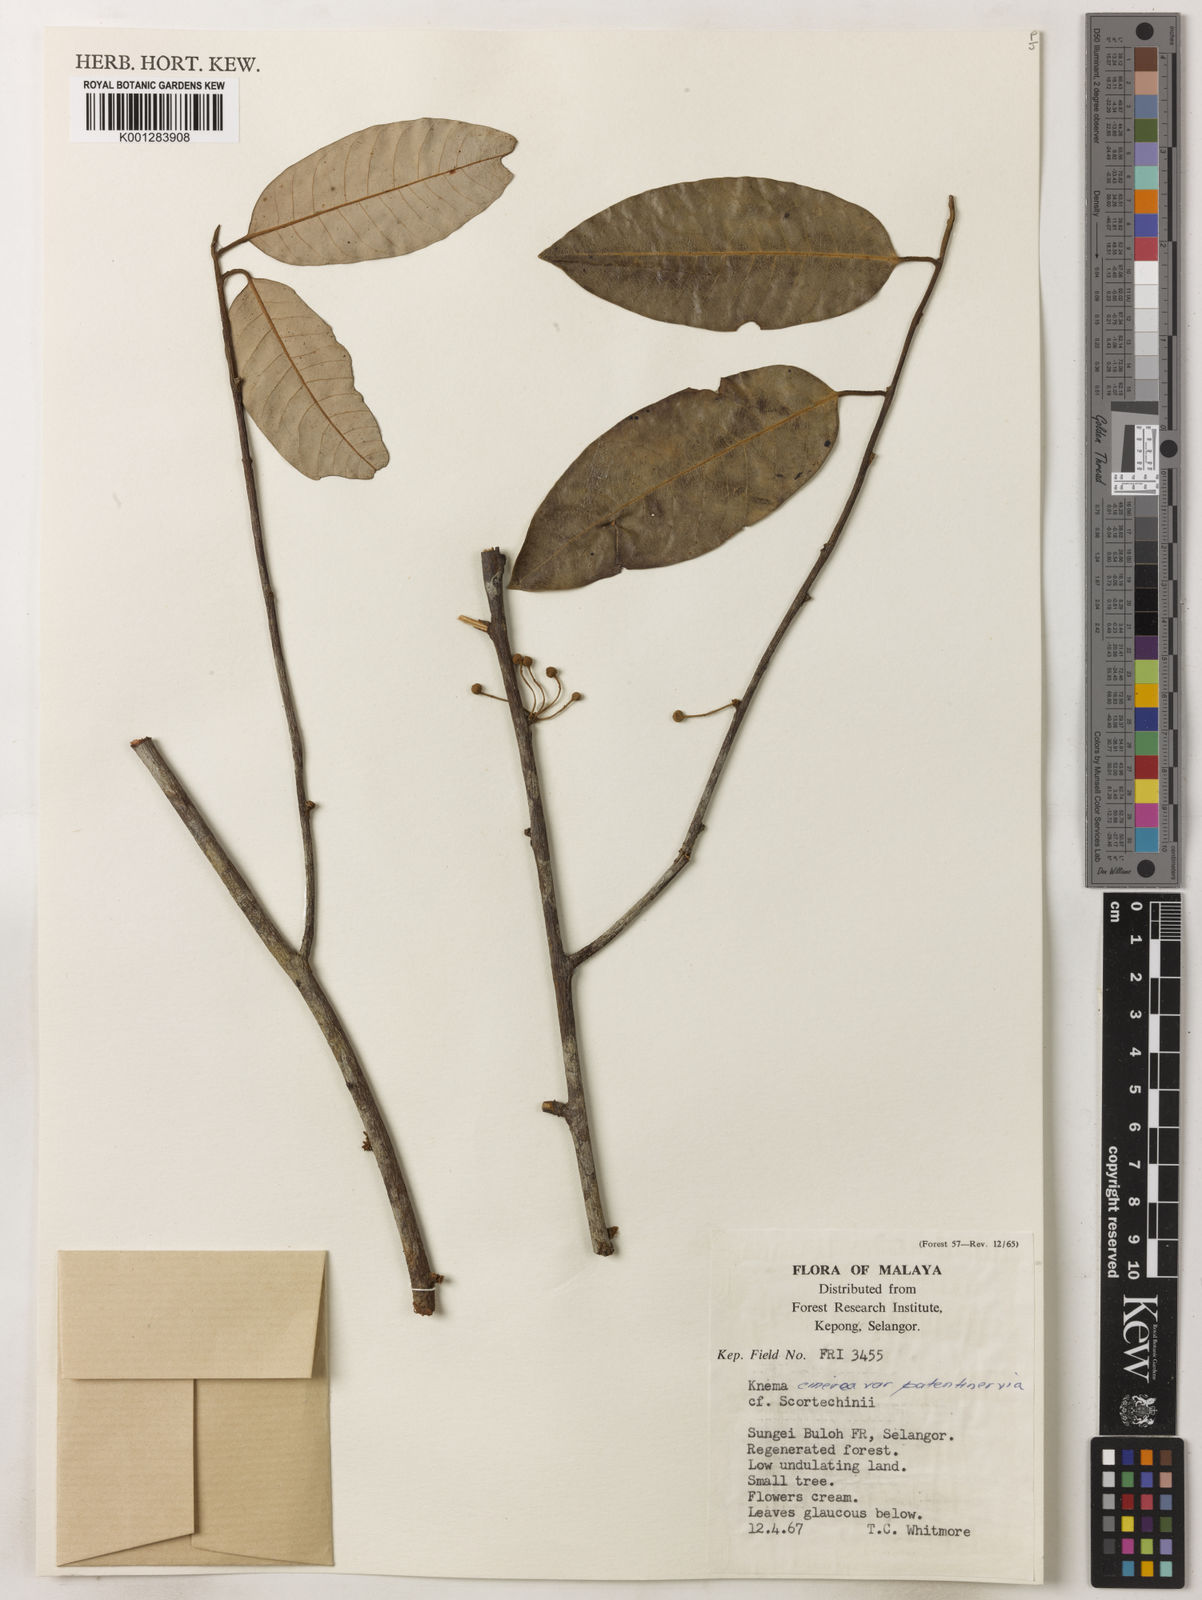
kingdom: Plantae
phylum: Tracheophyta
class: Magnoliopsida
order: Magnoliales
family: Myristicaceae
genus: Knema
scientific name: Knema
